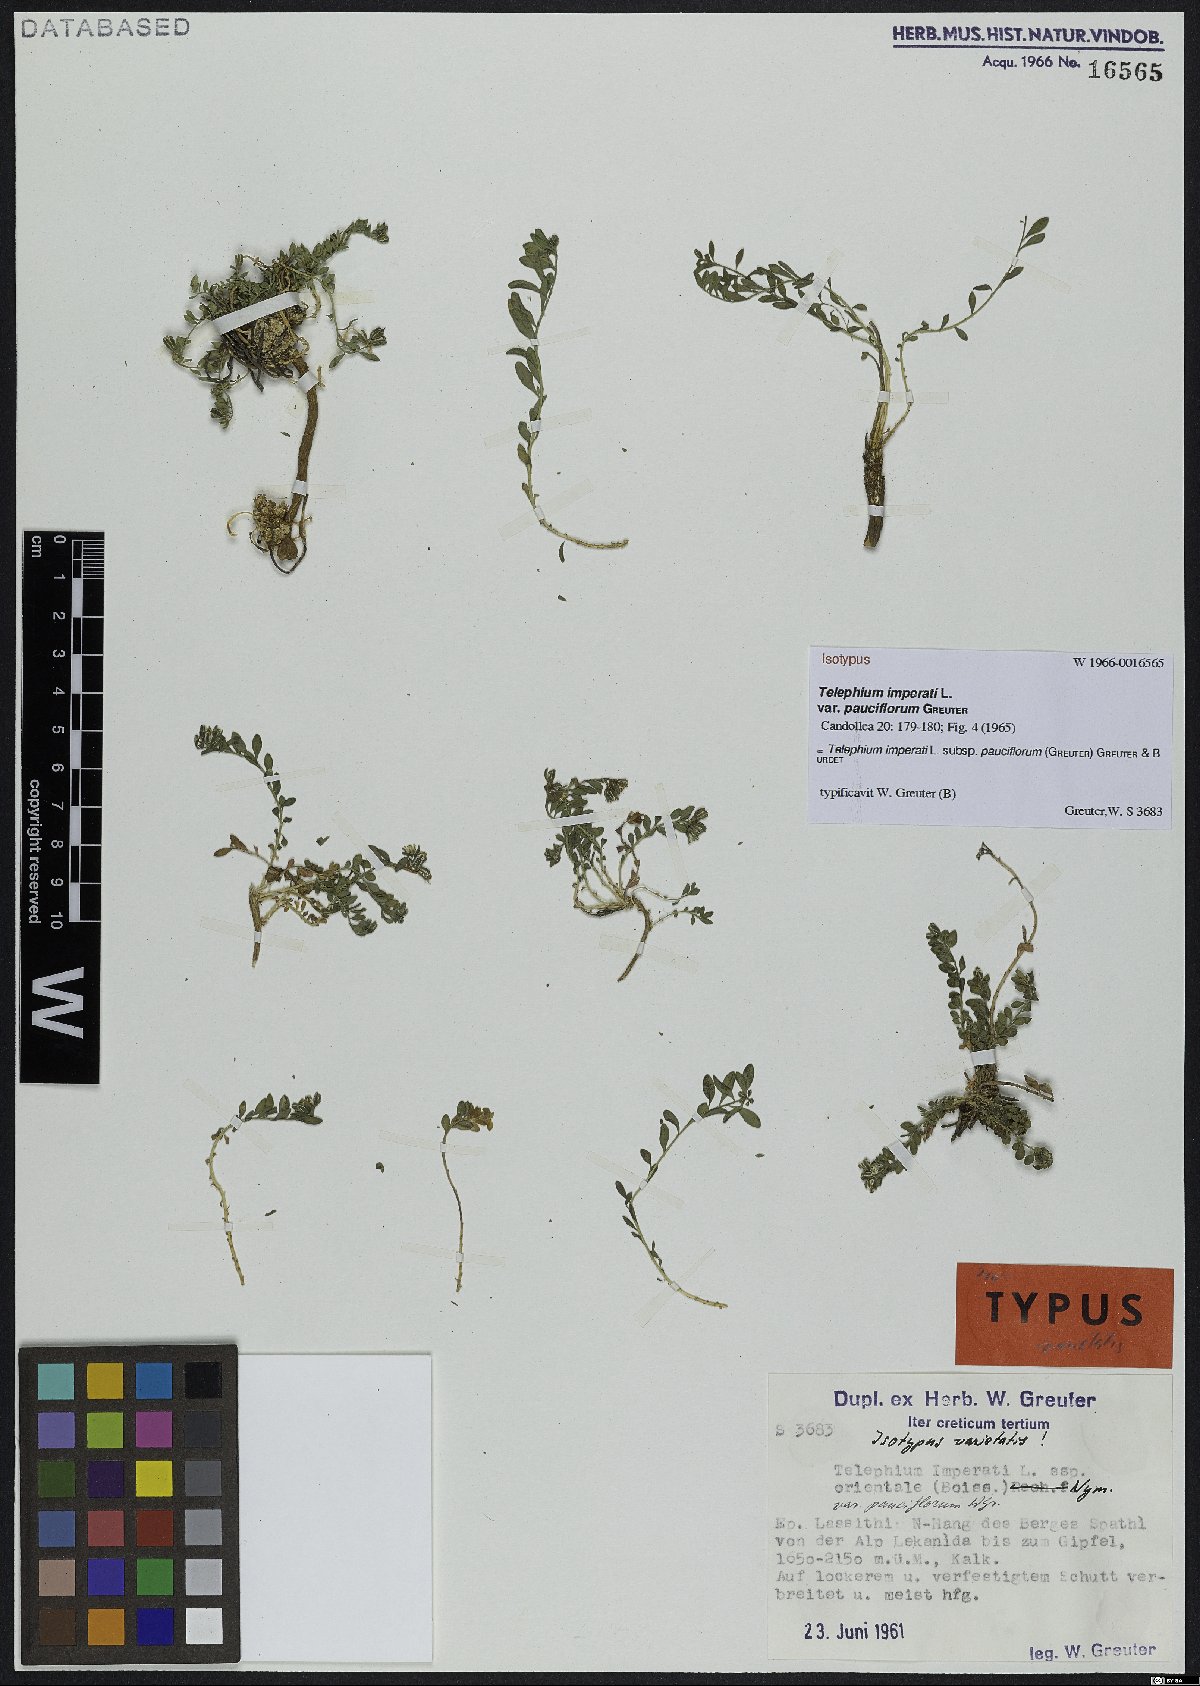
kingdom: Plantae
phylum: Tracheophyta
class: Magnoliopsida
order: Caryophyllales
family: Caryophyllaceae
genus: Telephium
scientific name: Telephium imperati
